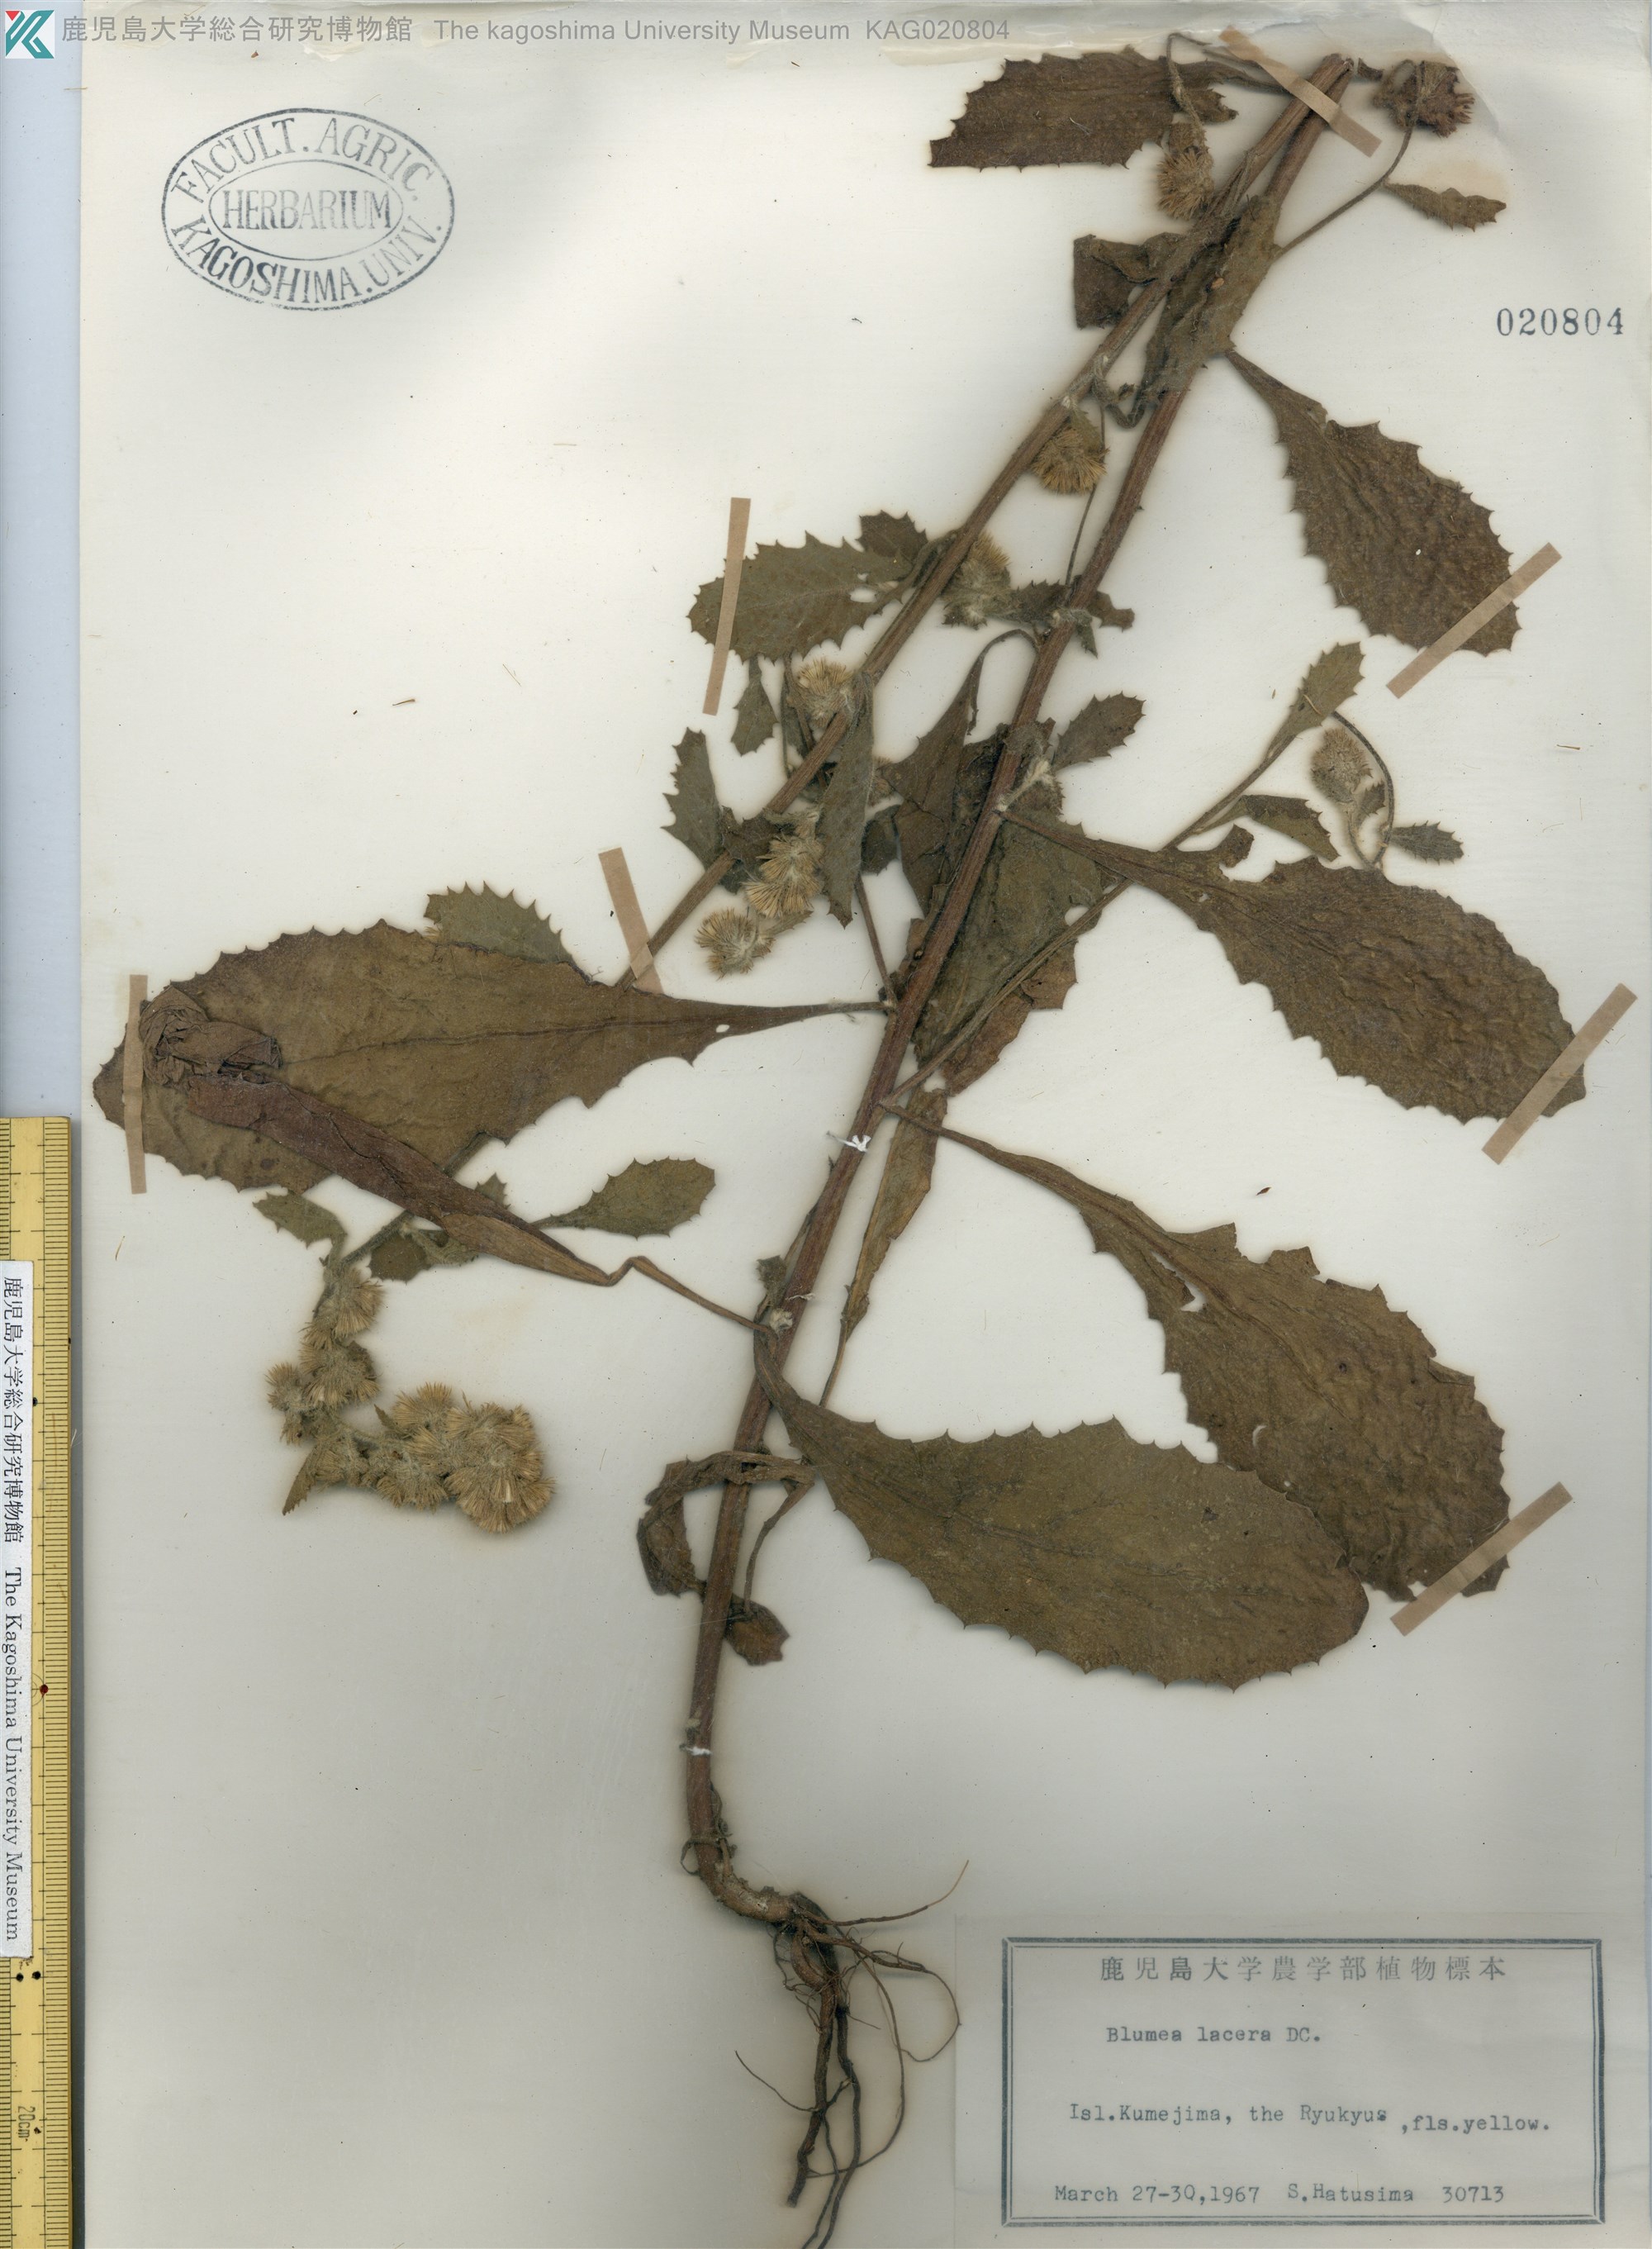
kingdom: Plantae
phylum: Tracheophyta
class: Magnoliopsida
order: Asterales
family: Asteraceae
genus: Blumea
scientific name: Blumea lacera
